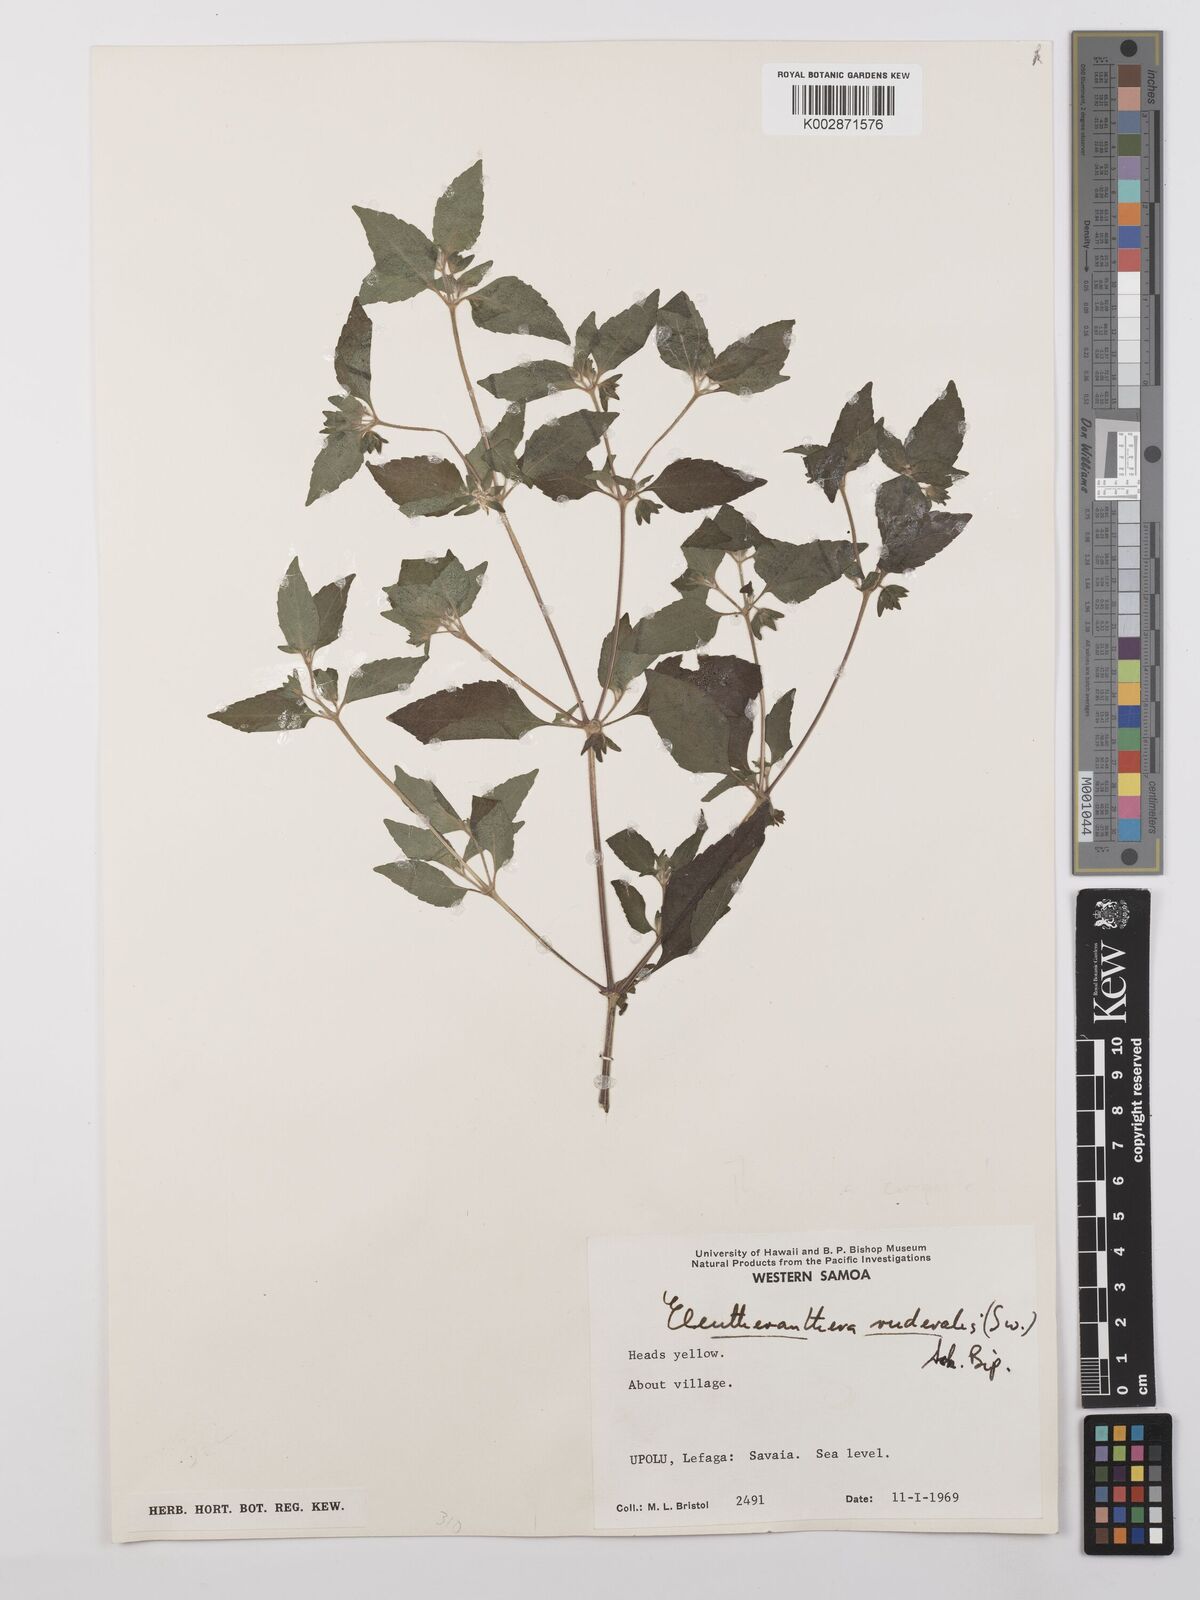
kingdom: Plantae
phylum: Tracheophyta
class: Magnoliopsida
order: Asterales
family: Asteraceae
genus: Eleutheranthera
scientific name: Eleutheranthera ruderalis
